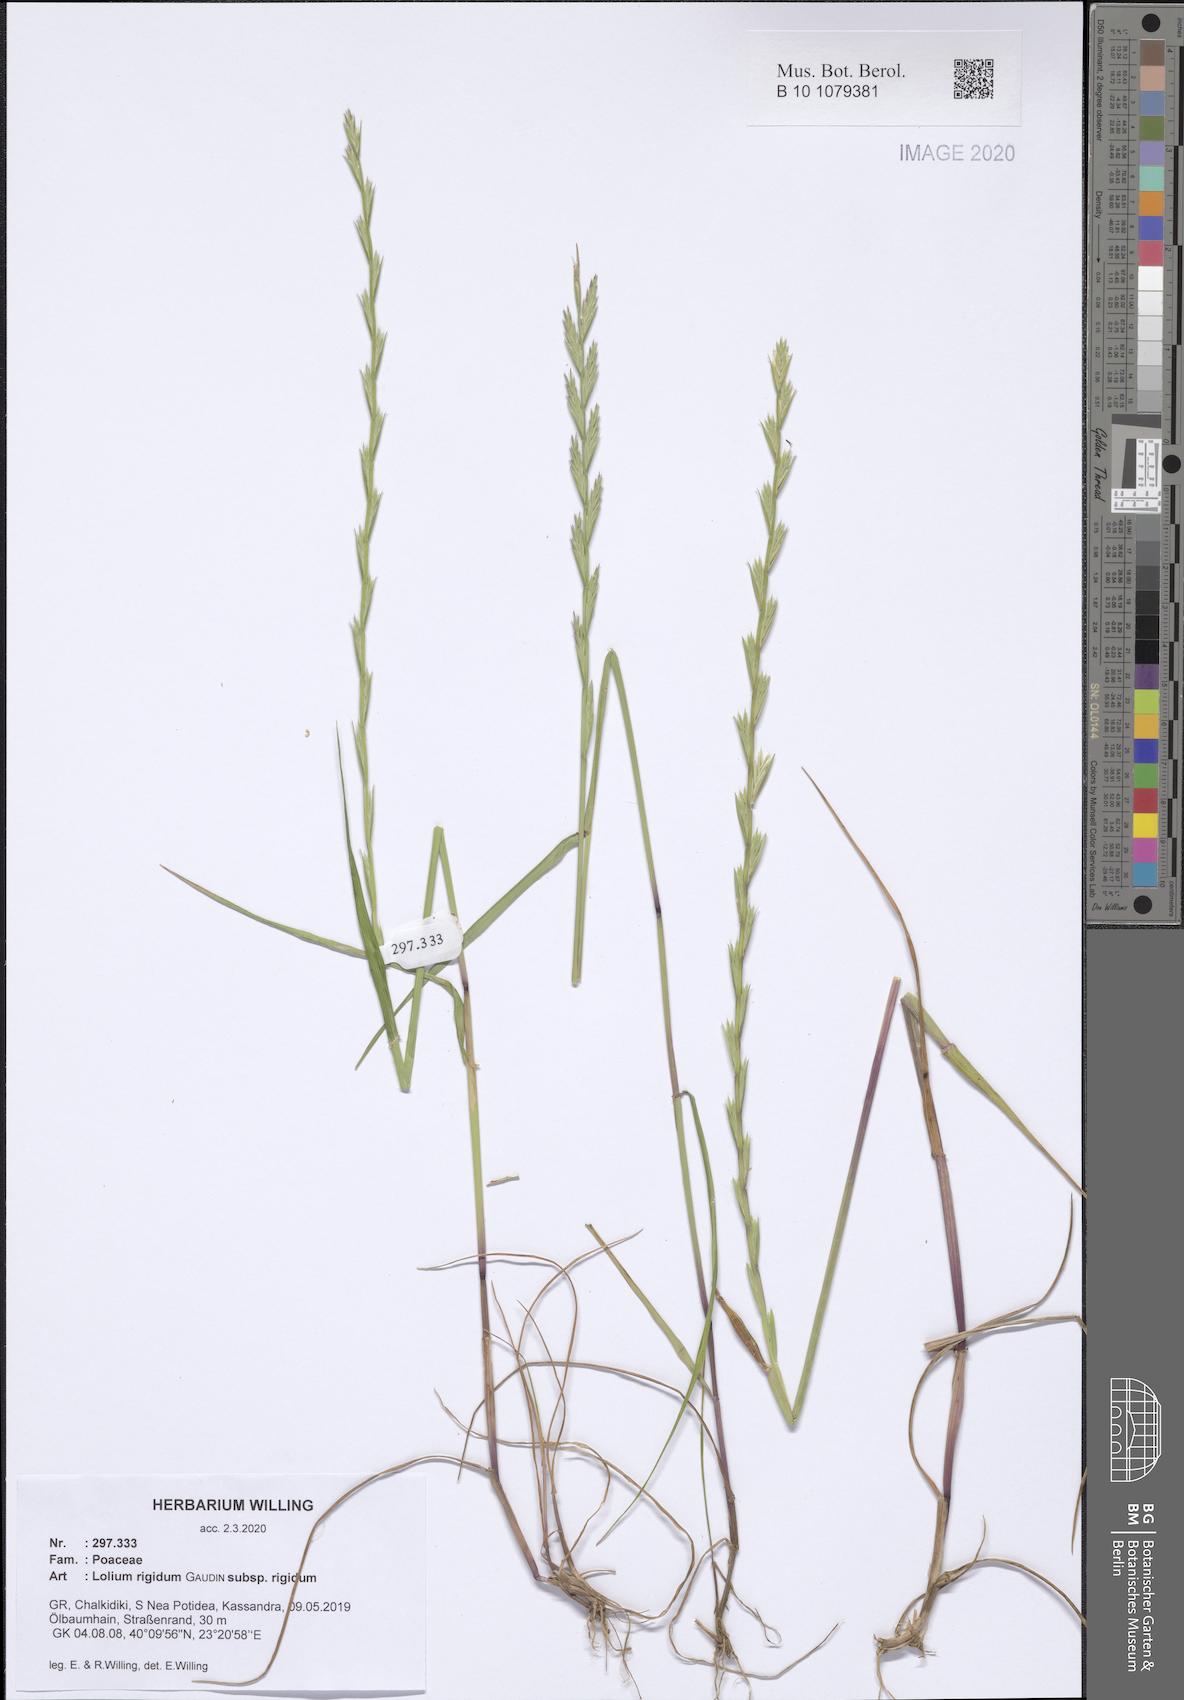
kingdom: Plantae
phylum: Tracheophyta
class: Liliopsida
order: Poales
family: Poaceae
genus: Lolium
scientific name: Lolium rigidum
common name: Wimmera ryegrass
